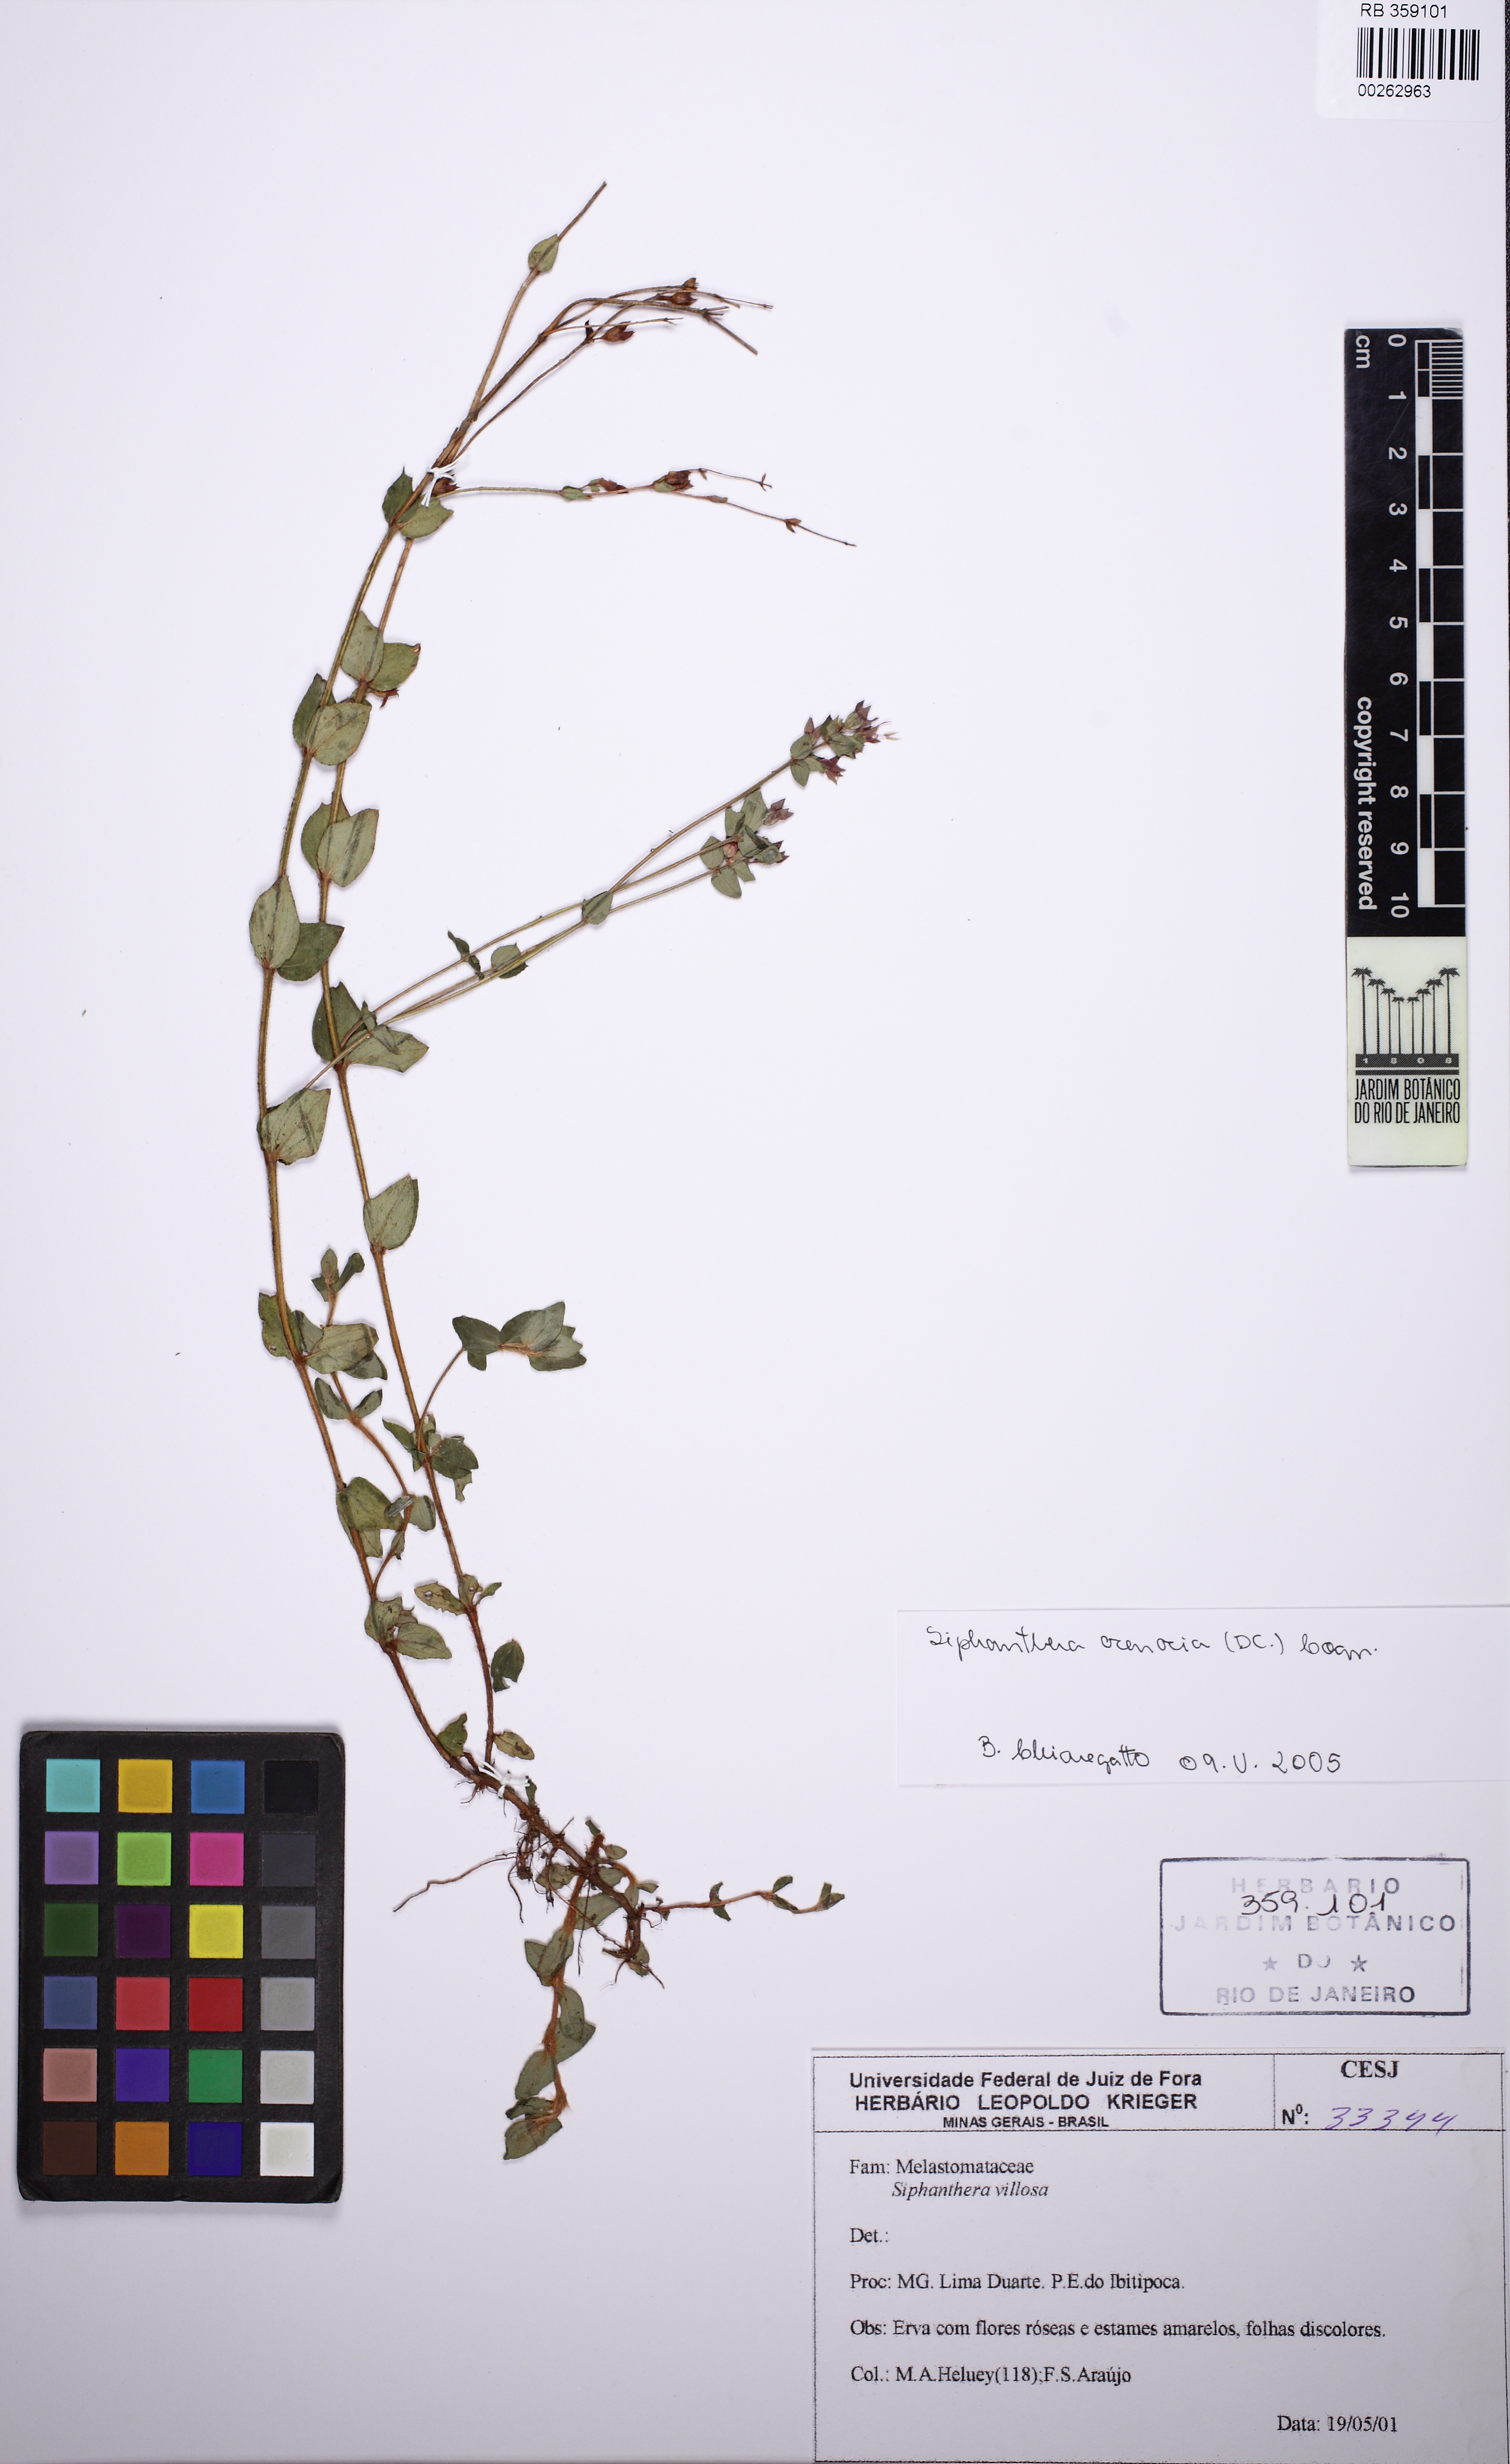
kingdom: Plantae
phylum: Tracheophyta
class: Magnoliopsida
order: Myrtales
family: Melastomataceae
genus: Siphanthera
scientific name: Siphanthera arenaria
